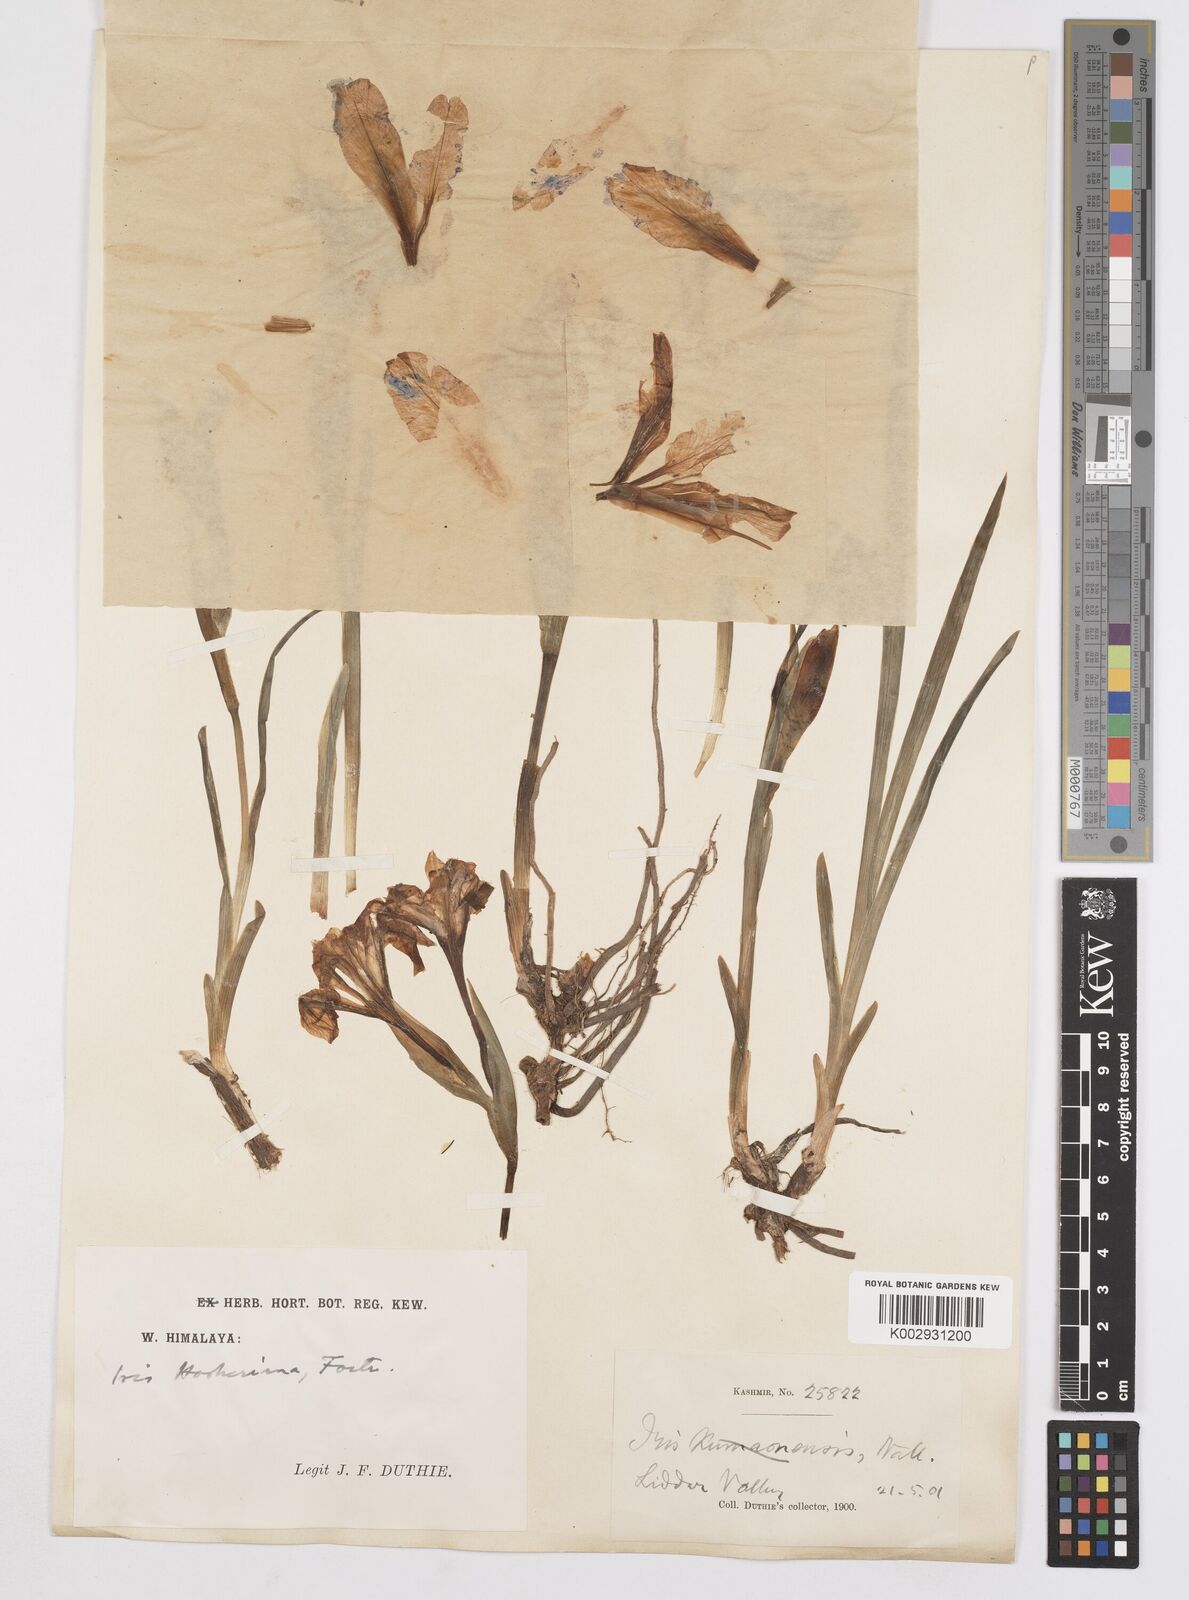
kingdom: Plantae
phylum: Tracheophyta
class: Liliopsida
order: Asparagales
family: Iridaceae
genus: Iris
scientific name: Iris hookeriana
